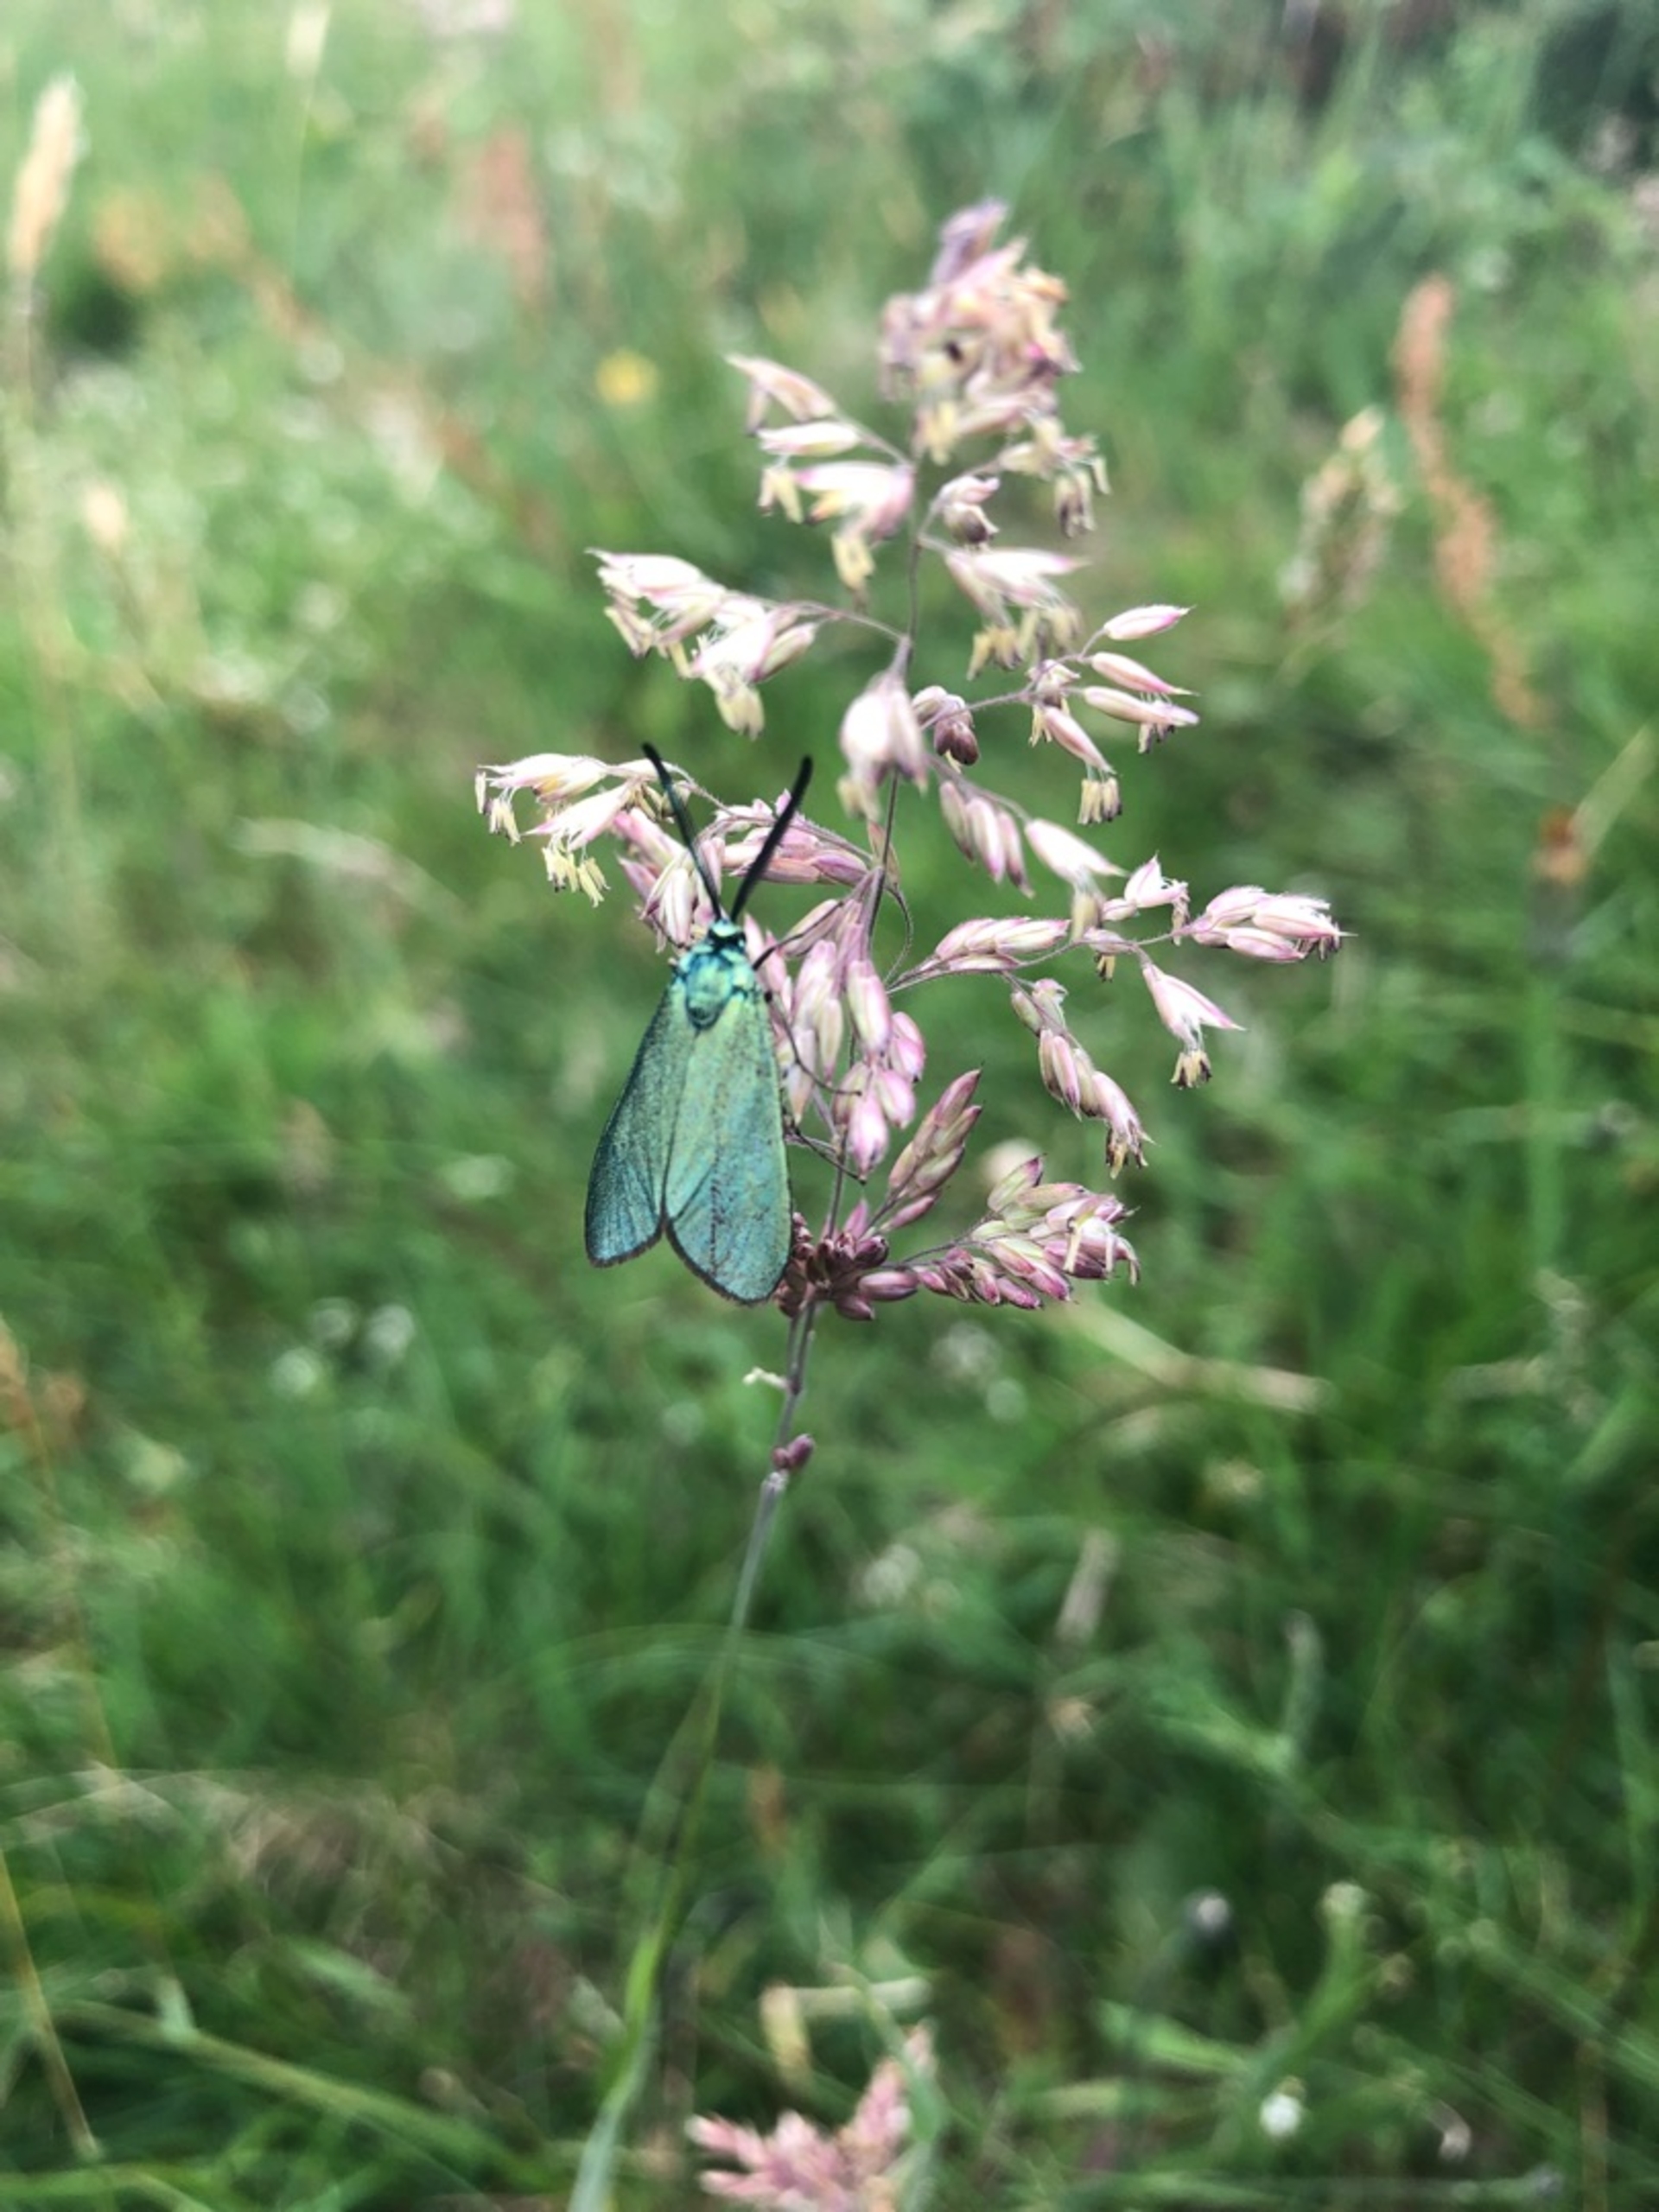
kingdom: Animalia
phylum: Arthropoda
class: Insecta
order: Lepidoptera
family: Zygaenidae
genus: Adscita
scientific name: Adscita statices
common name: Metalvinge
